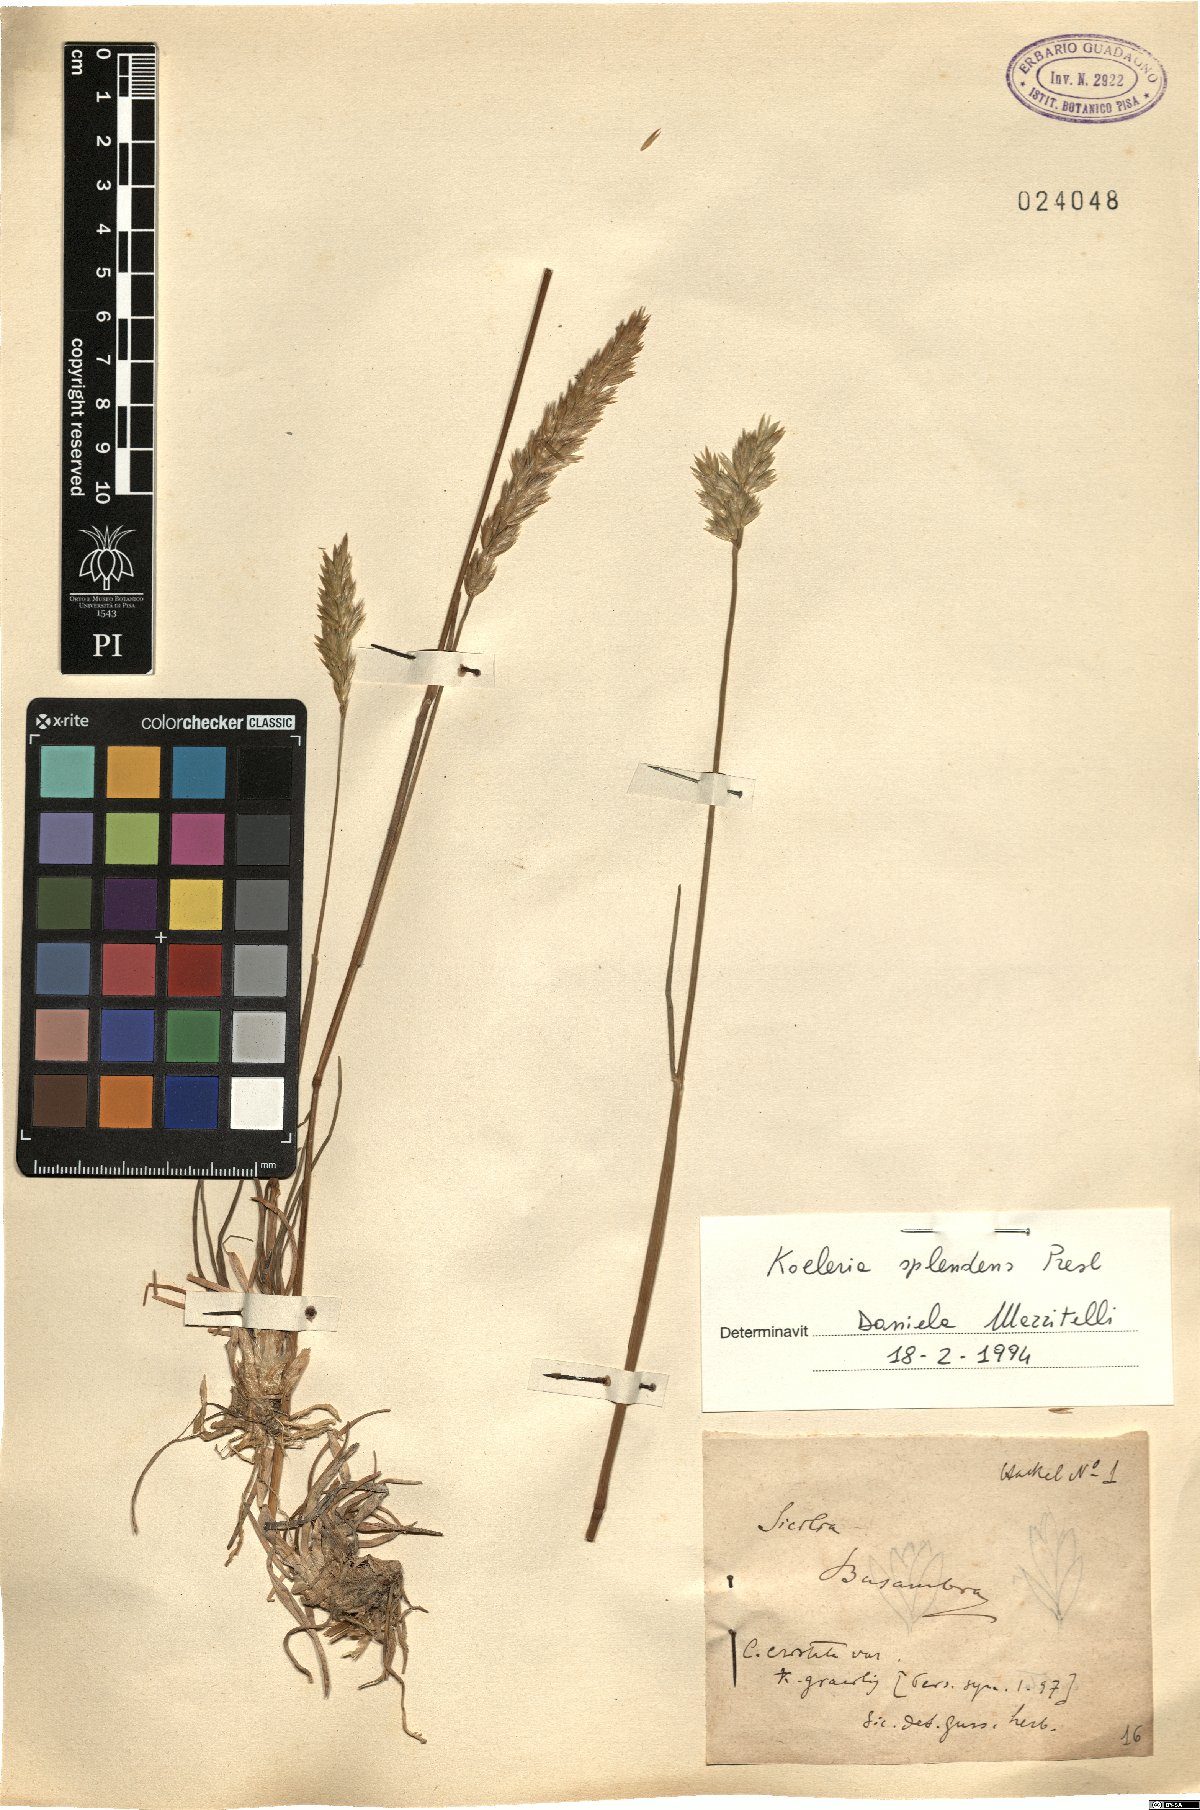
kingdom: Plantae
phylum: Tracheophyta
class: Liliopsida
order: Poales
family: Poaceae
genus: Koeleria
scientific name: Koeleria splendens
